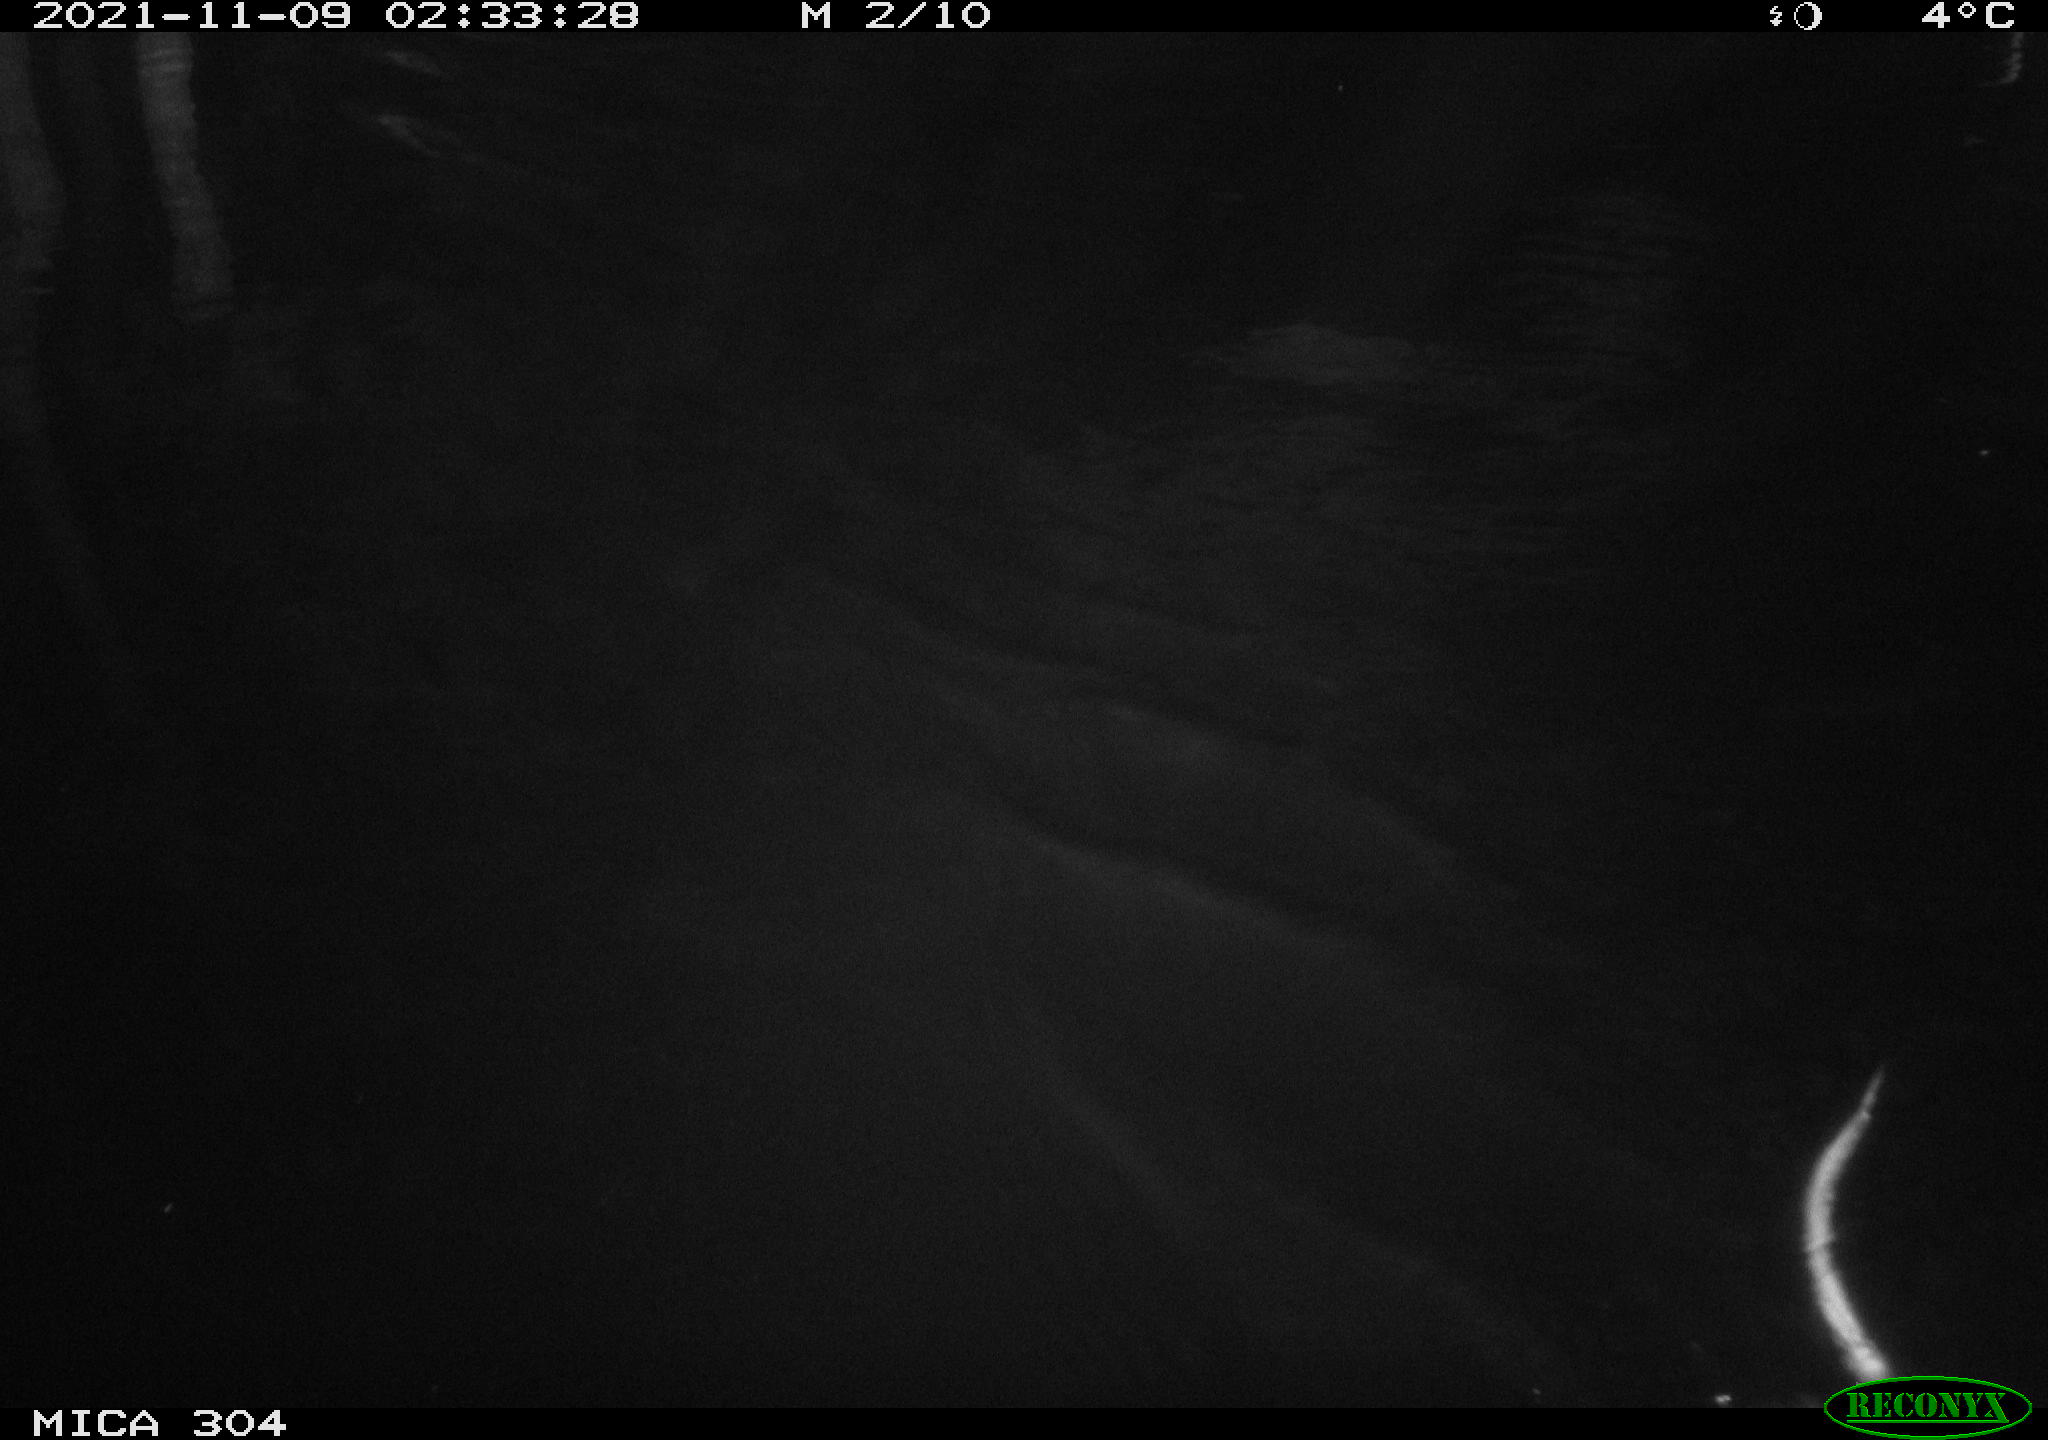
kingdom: Animalia
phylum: Chordata
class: Mammalia
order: Rodentia
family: Cricetidae
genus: Ondatra
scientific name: Ondatra zibethicus
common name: Muskrat
